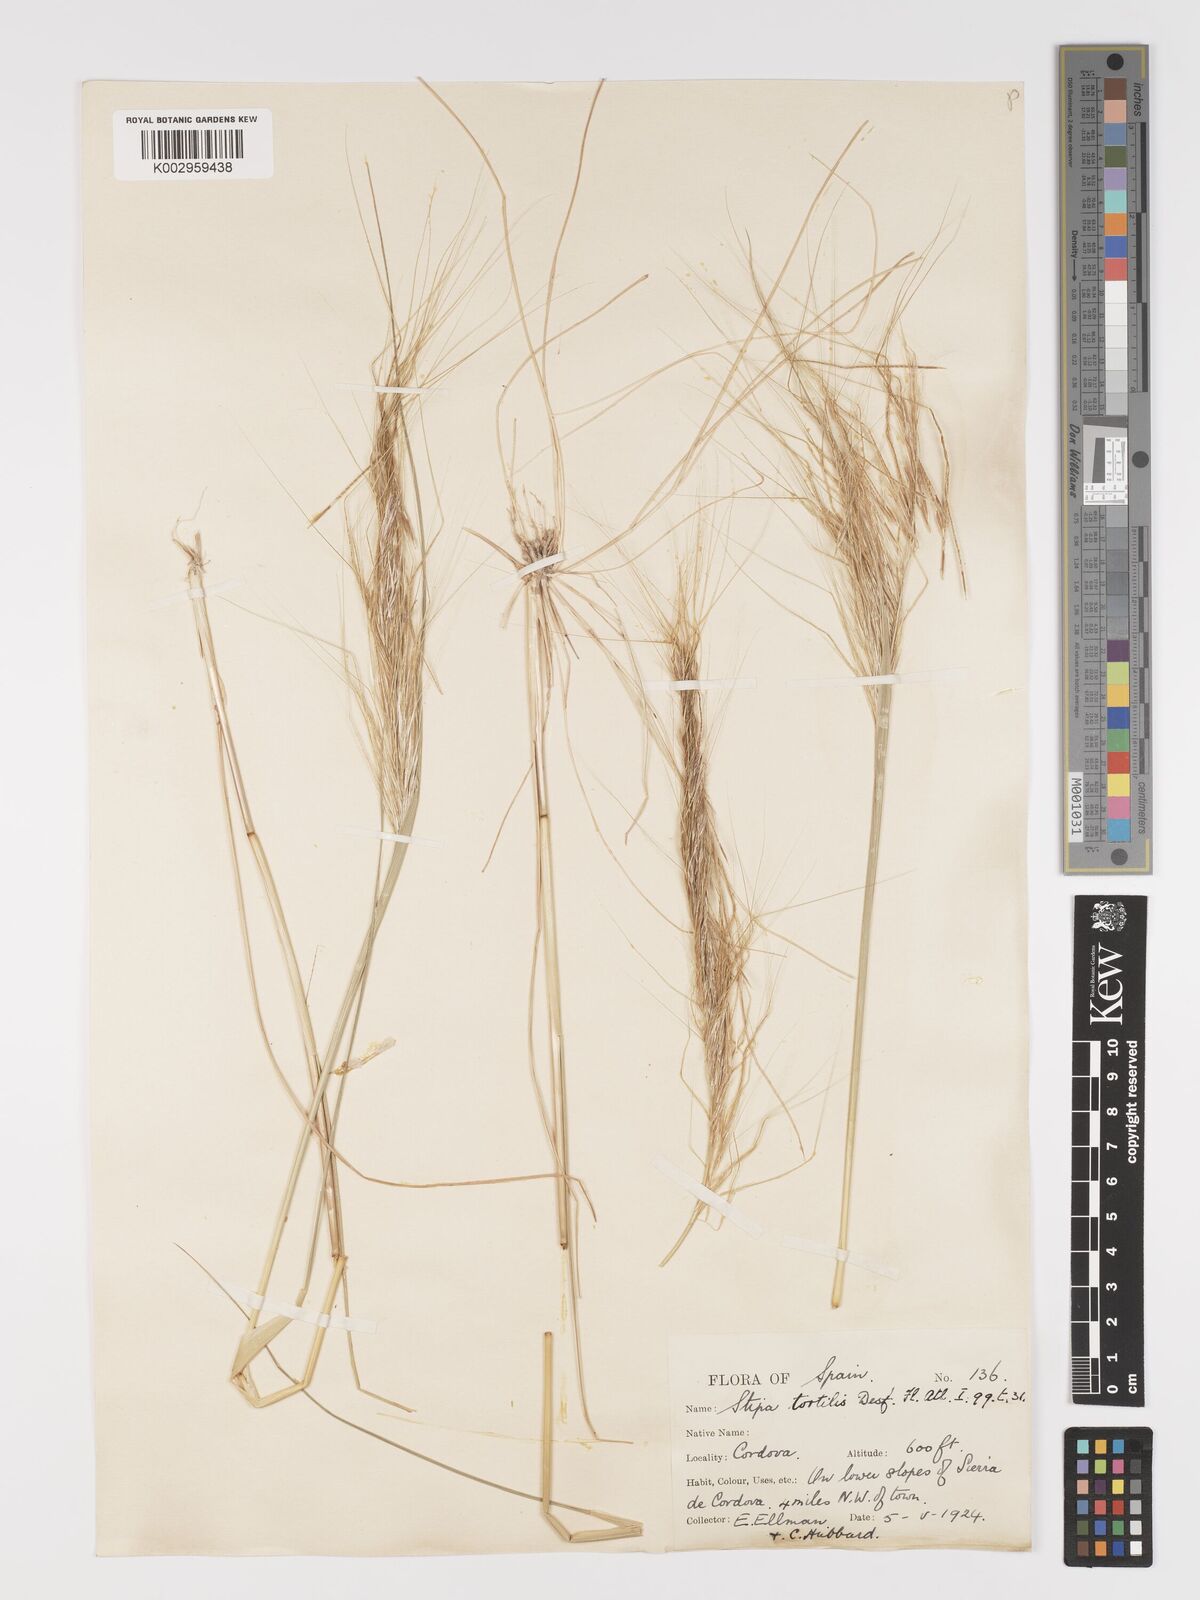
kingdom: Plantae
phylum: Tracheophyta
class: Liliopsida
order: Poales
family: Poaceae
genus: Stipa
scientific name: Stipa
